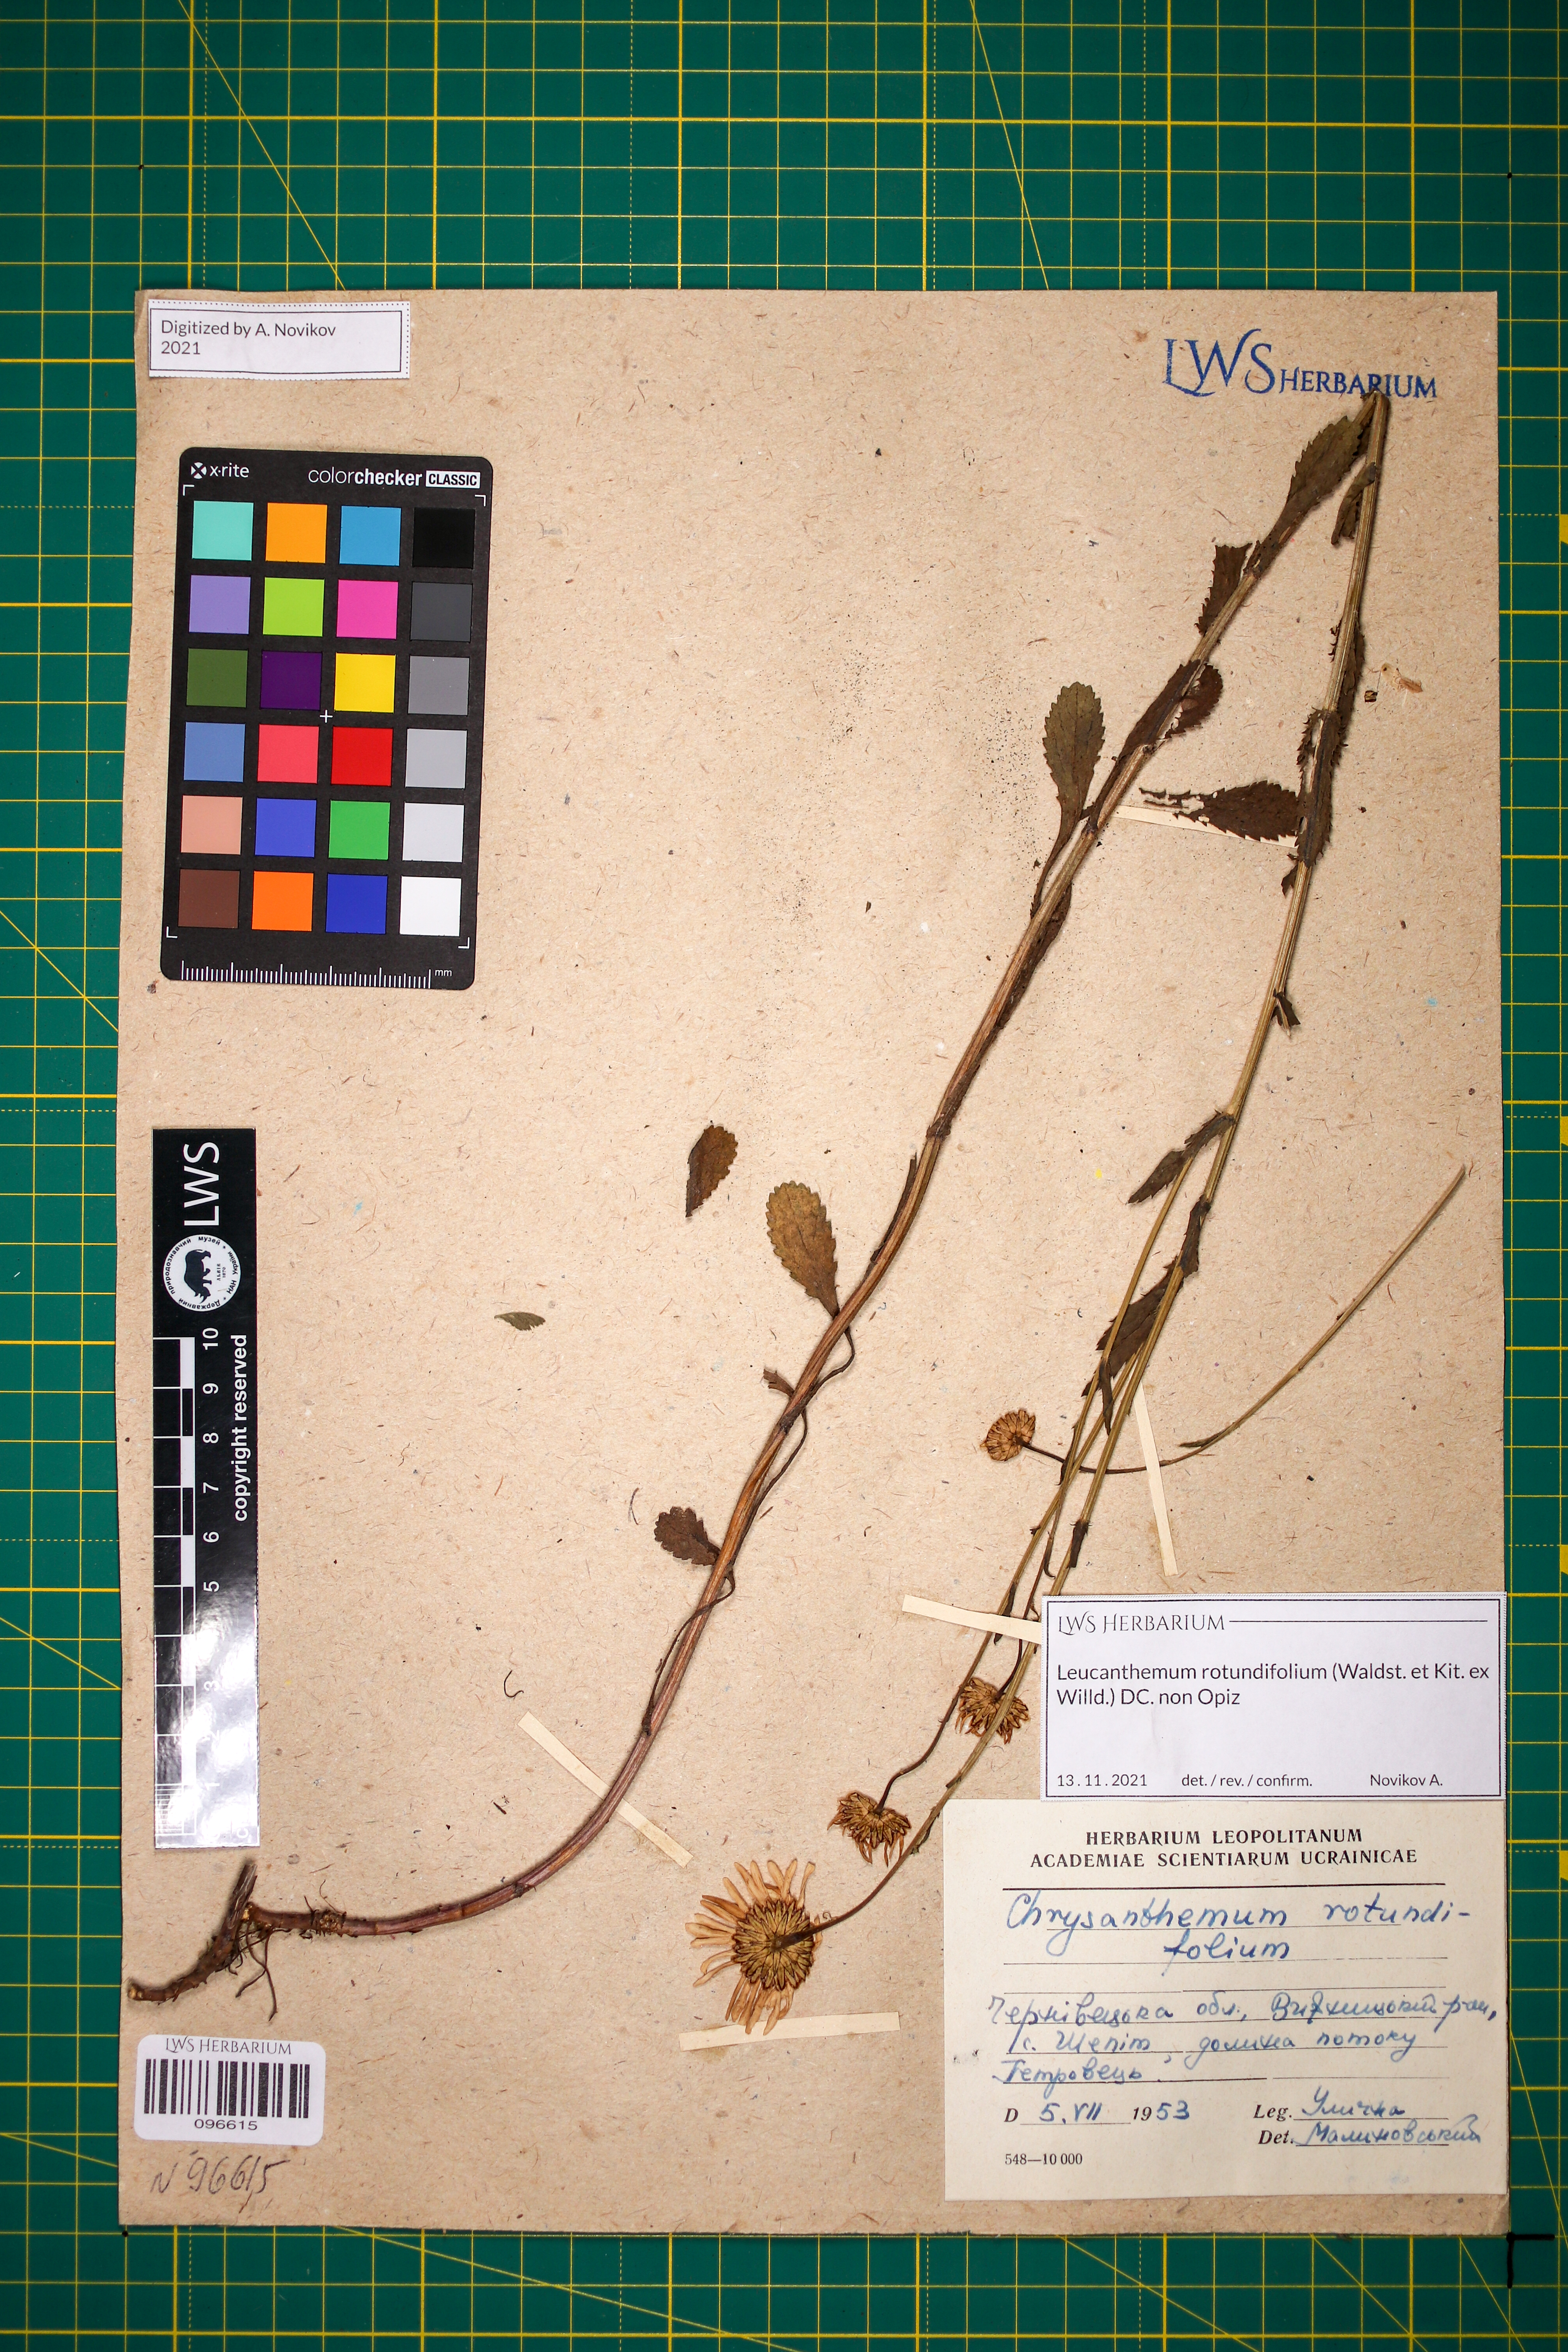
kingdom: Plantae
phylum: Tracheophyta
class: Magnoliopsida
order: Asterales
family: Asteraceae
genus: Leucanthemum
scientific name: Leucanthemum rotundifolium
